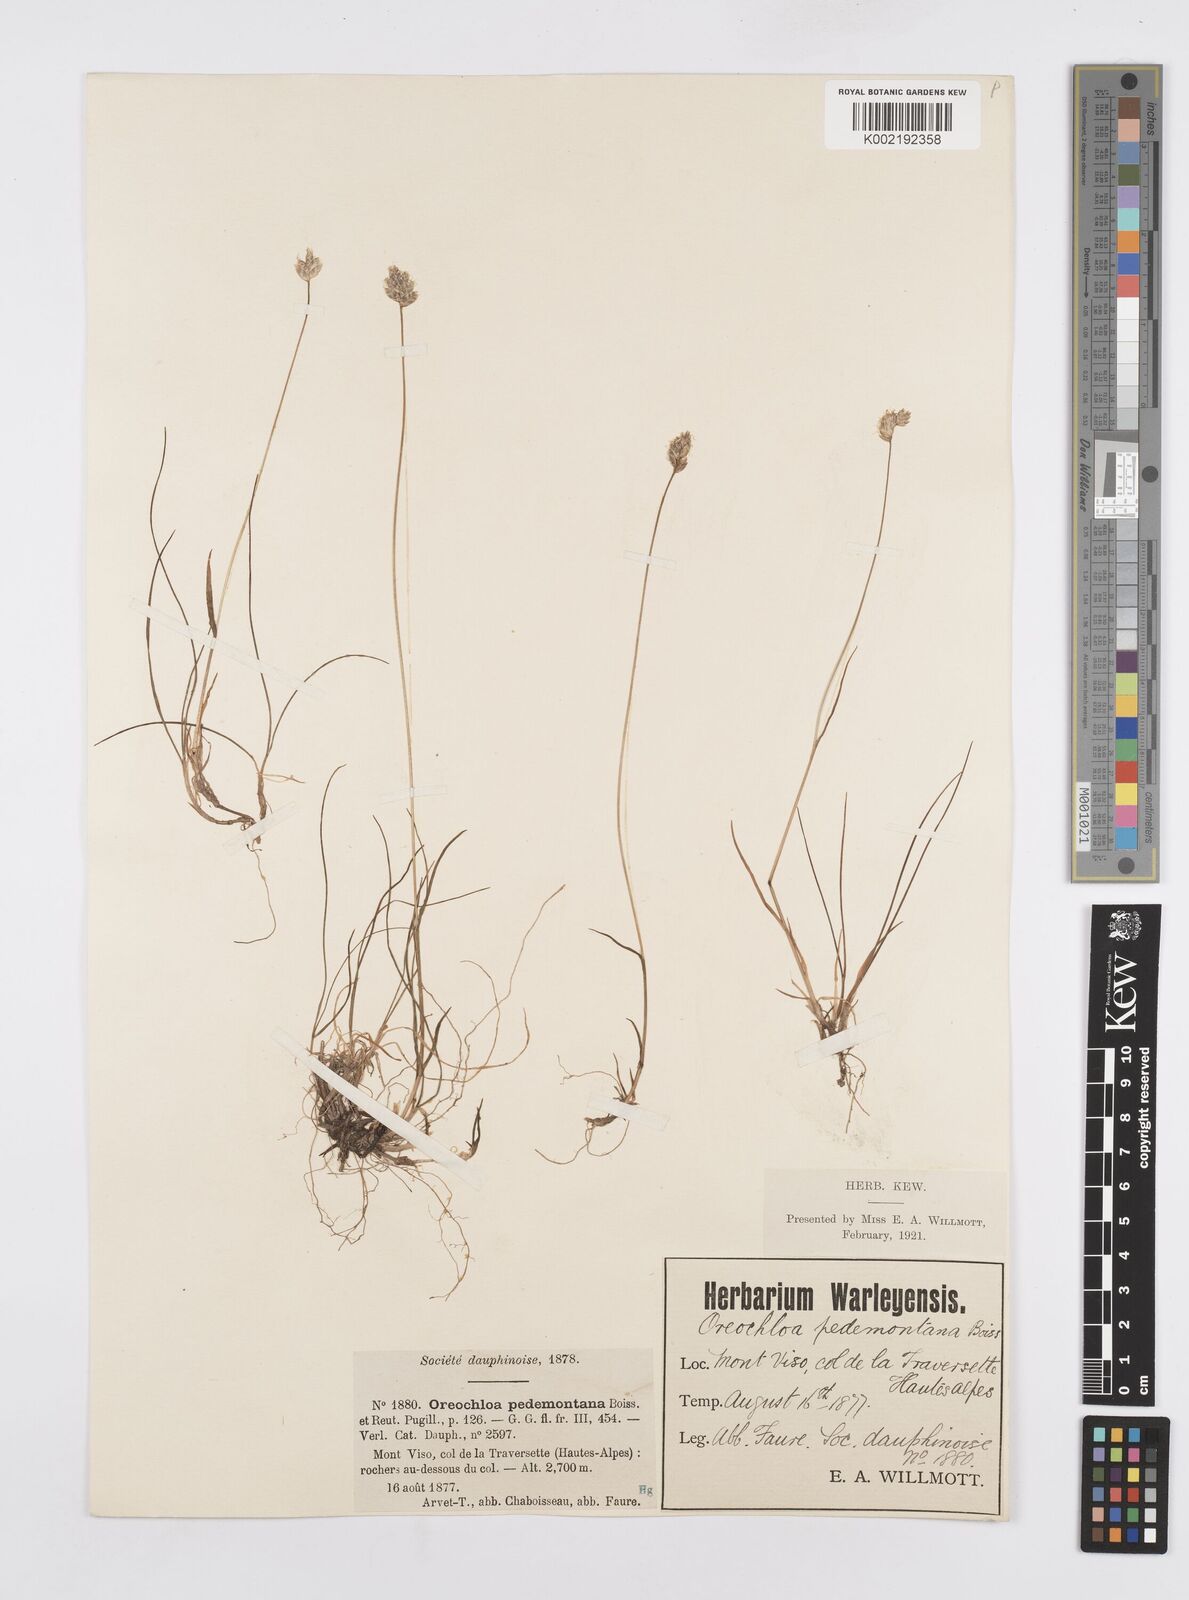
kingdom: Plantae
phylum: Tracheophyta
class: Liliopsida
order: Poales
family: Poaceae
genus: Oreochloa
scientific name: Oreochloa seslerioides
